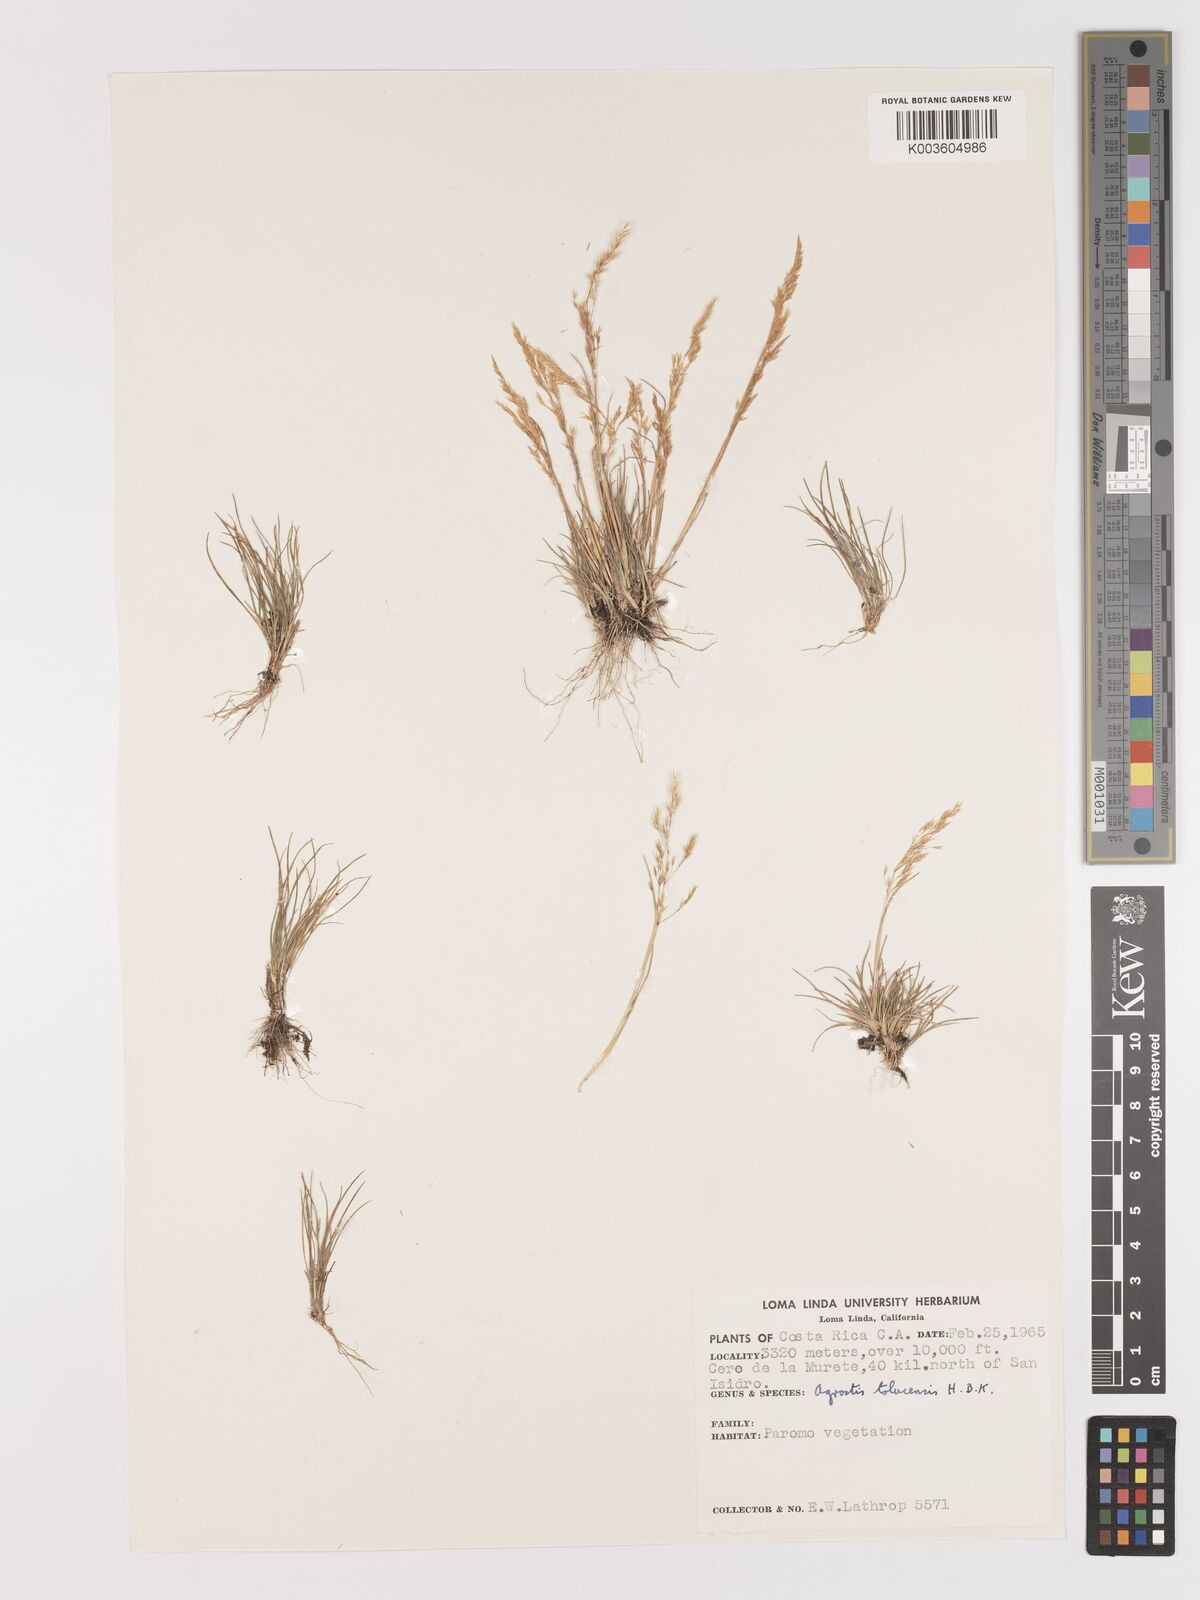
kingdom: Plantae
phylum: Tracheophyta
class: Liliopsida
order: Poales
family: Poaceae
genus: Agrostis
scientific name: Agrostis tolucensis
